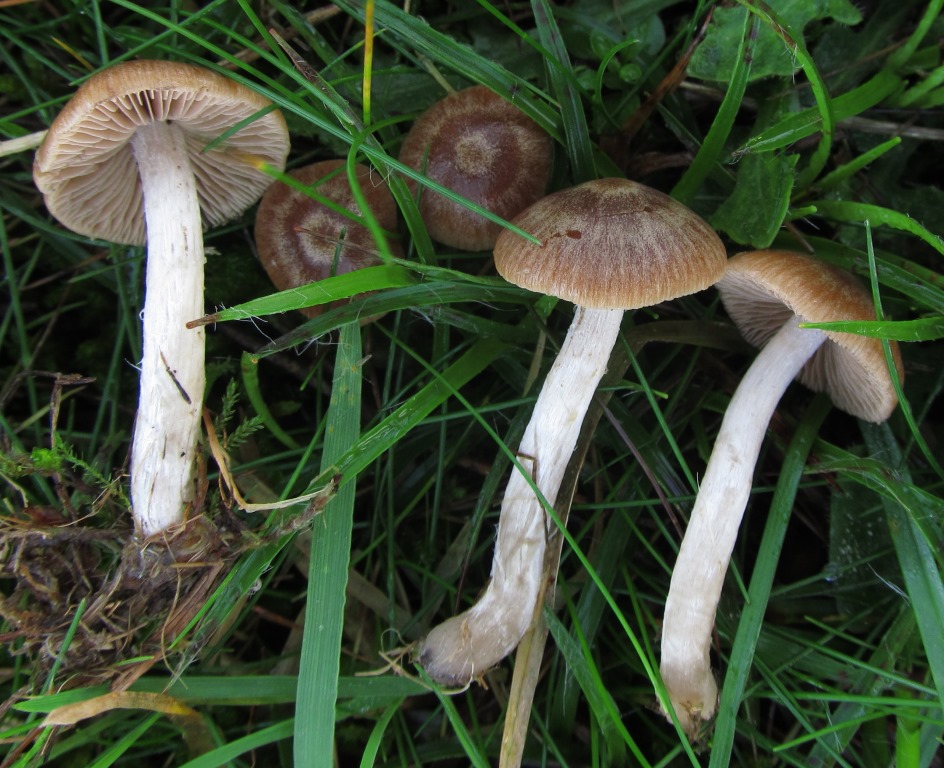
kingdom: Fungi
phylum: Basidiomycota
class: Agaricomycetes
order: Agaricales
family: Psathyrellaceae
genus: Psathyrella
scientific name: Psathyrella panaeoloides
